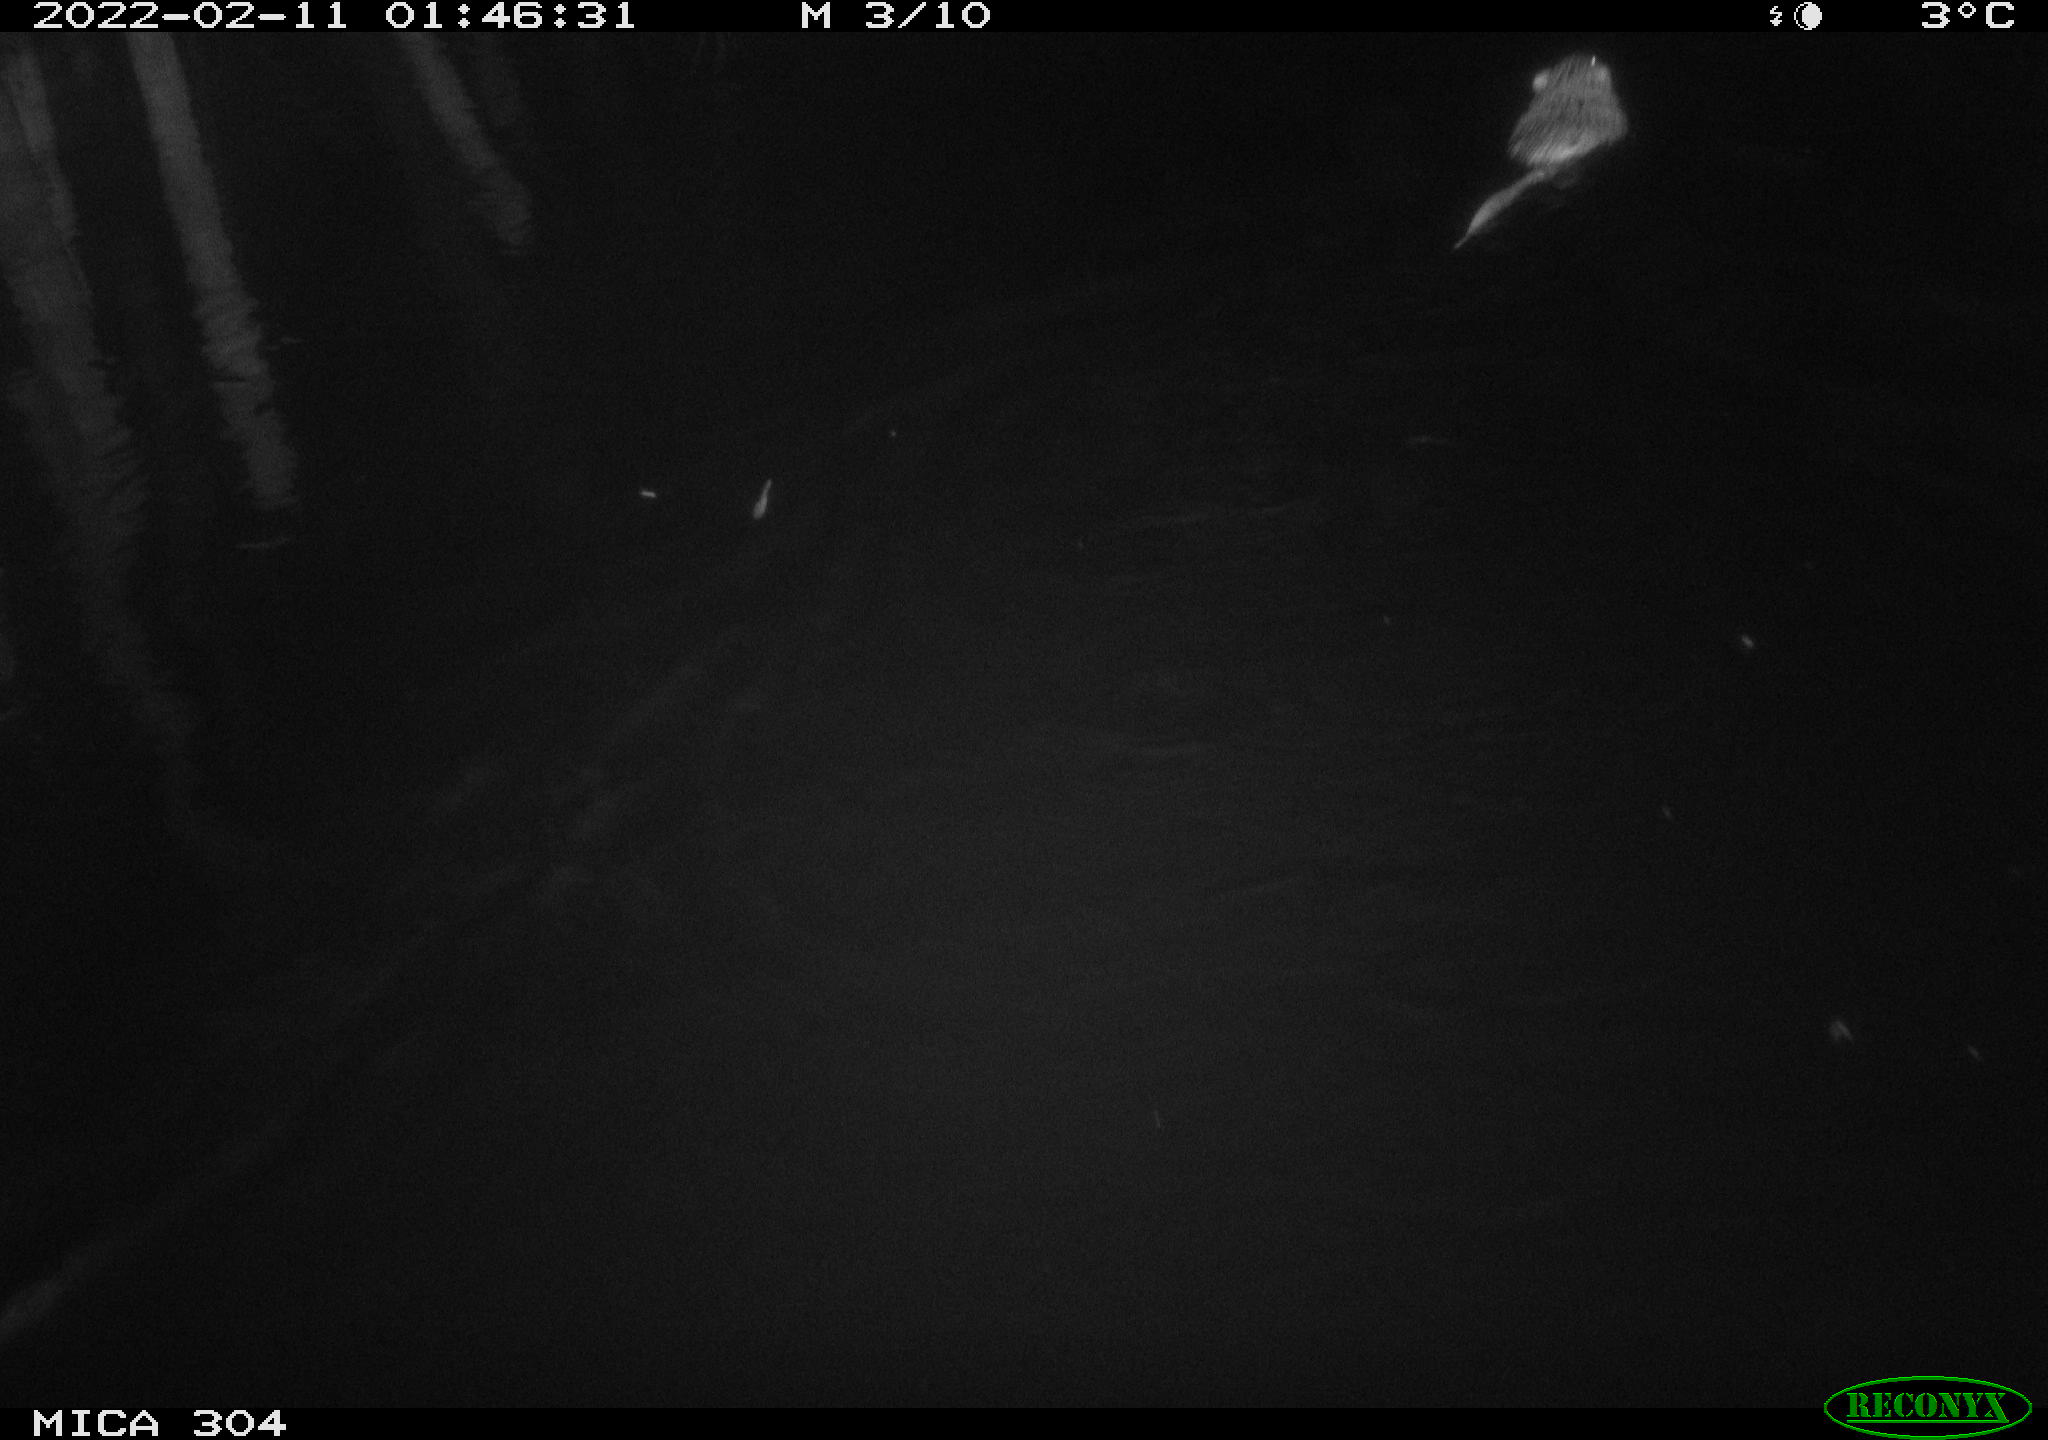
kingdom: Animalia
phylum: Chordata
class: Mammalia
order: Rodentia
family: Cricetidae
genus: Ondatra
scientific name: Ondatra zibethicus
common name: Muskrat
